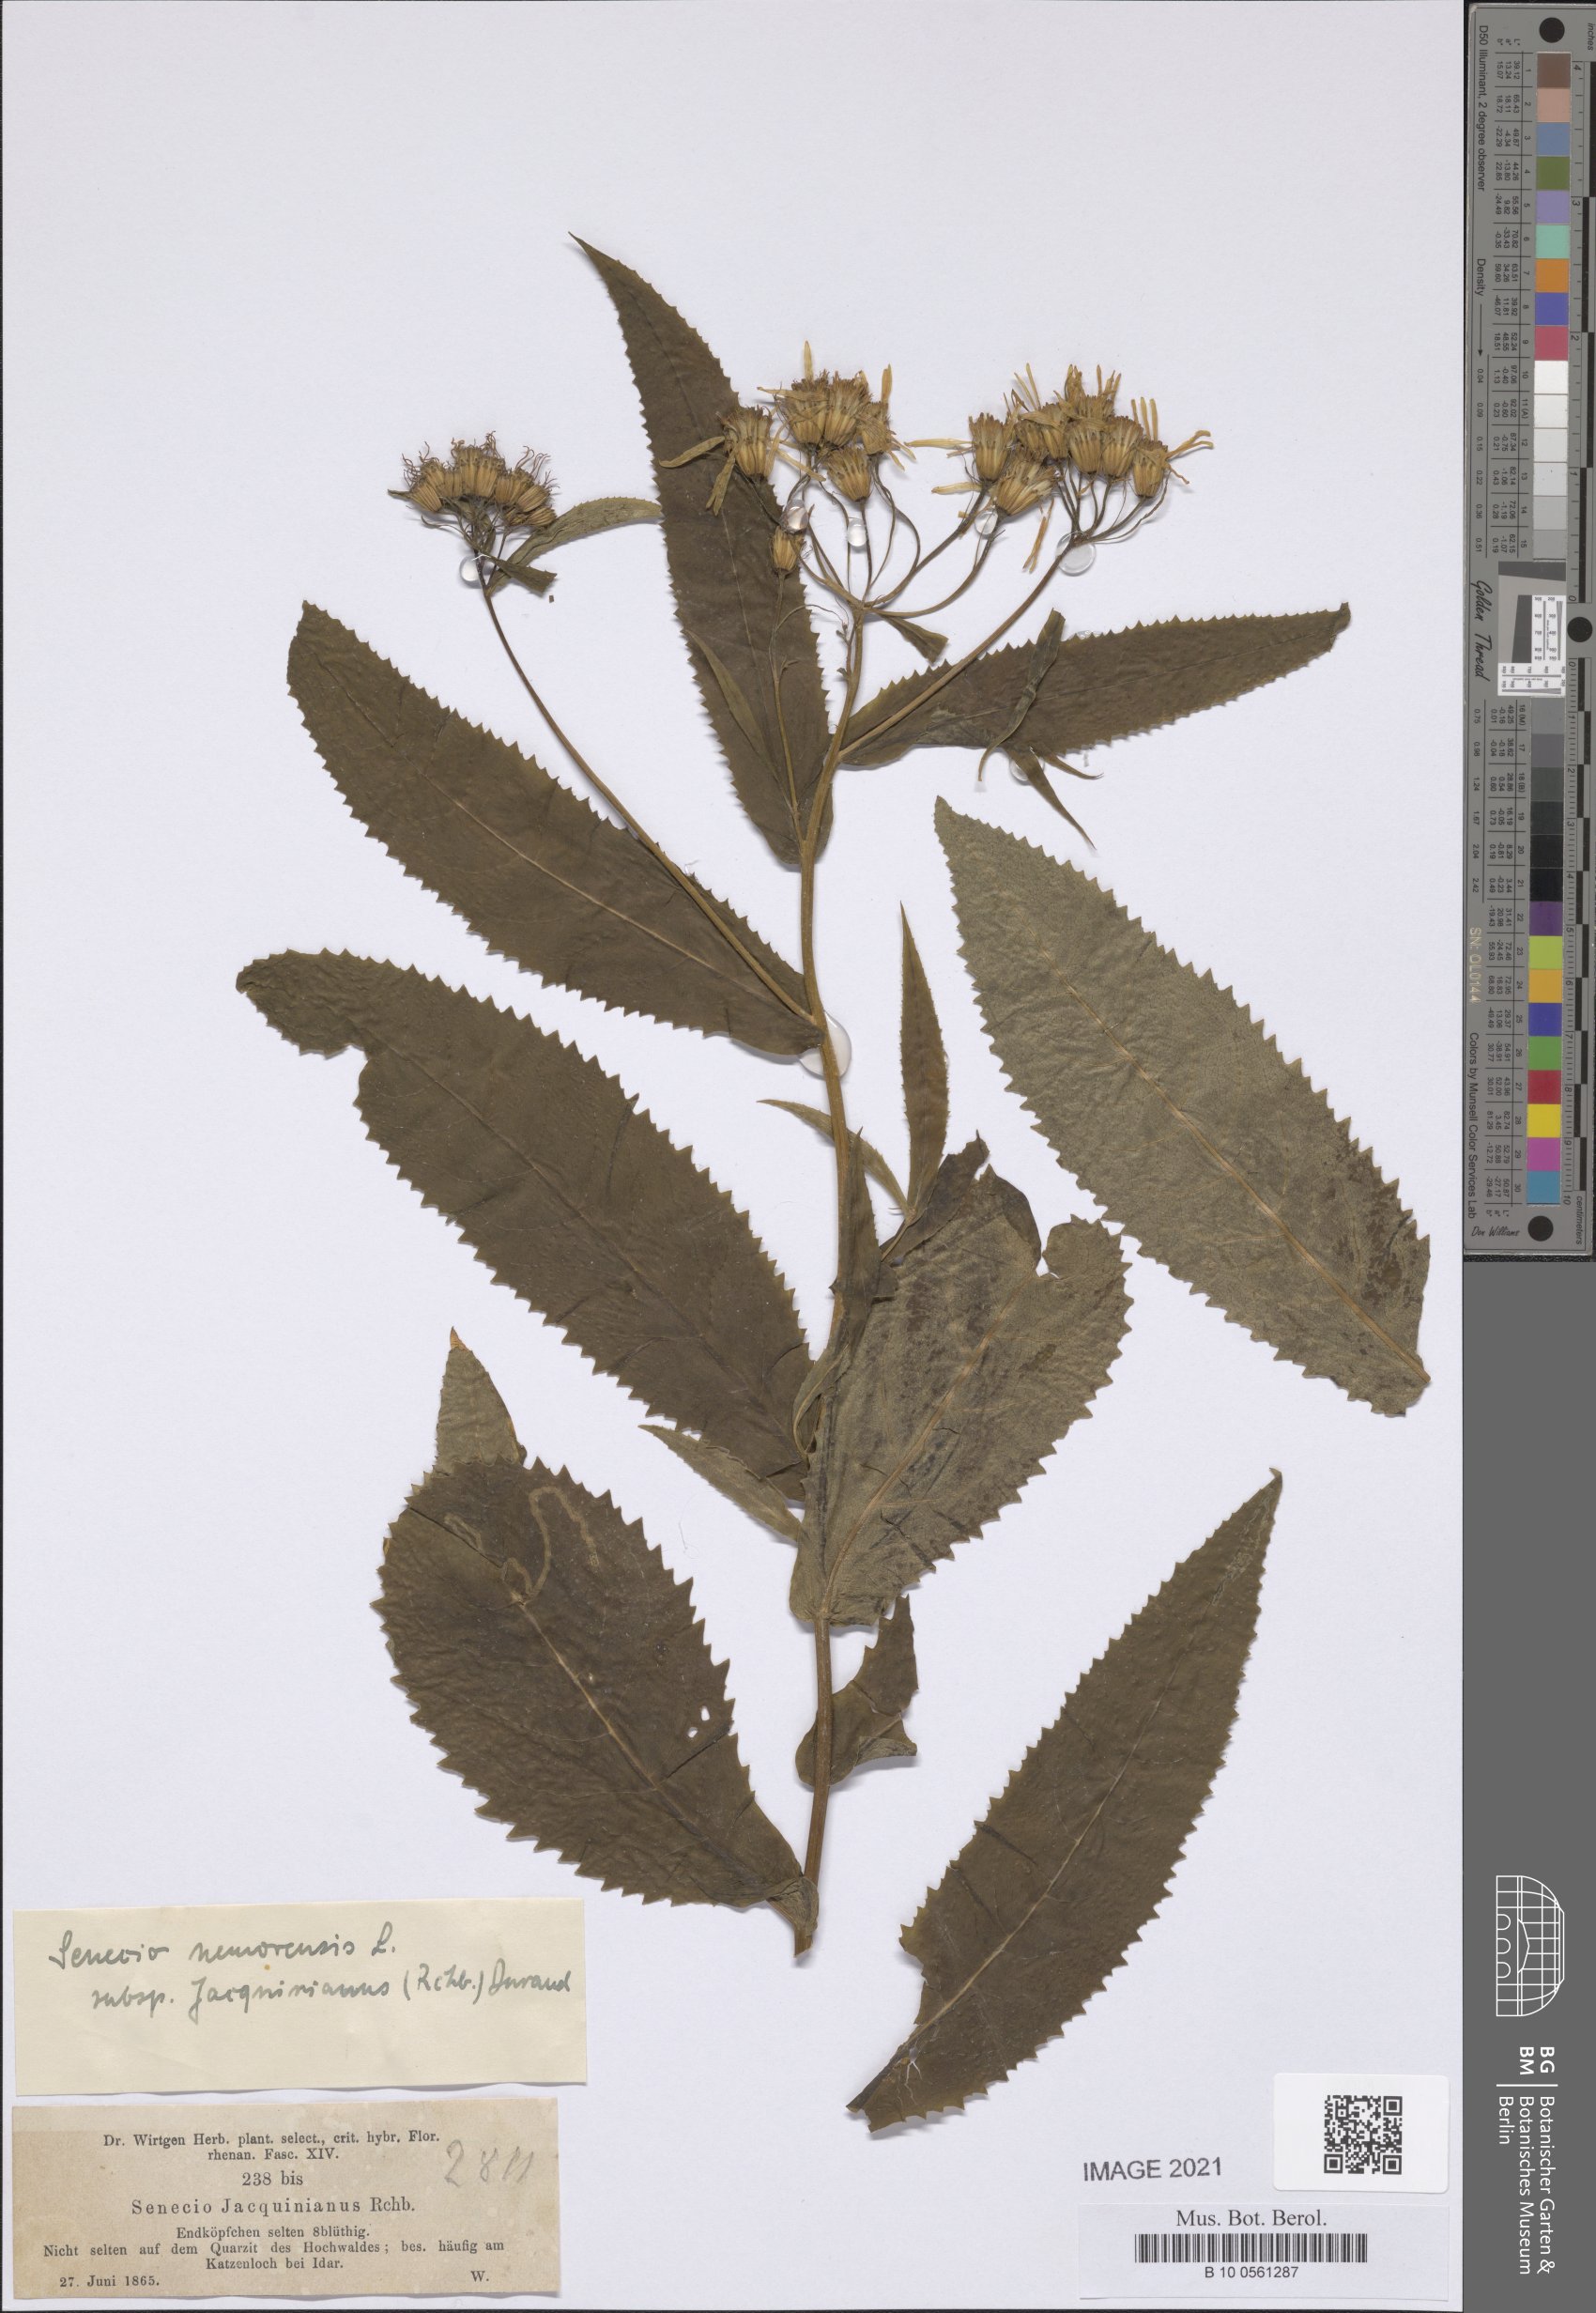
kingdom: Plantae
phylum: Tracheophyta
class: Magnoliopsida
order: Asterales
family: Asteraceae
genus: Senecio
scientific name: Senecio germanicus
